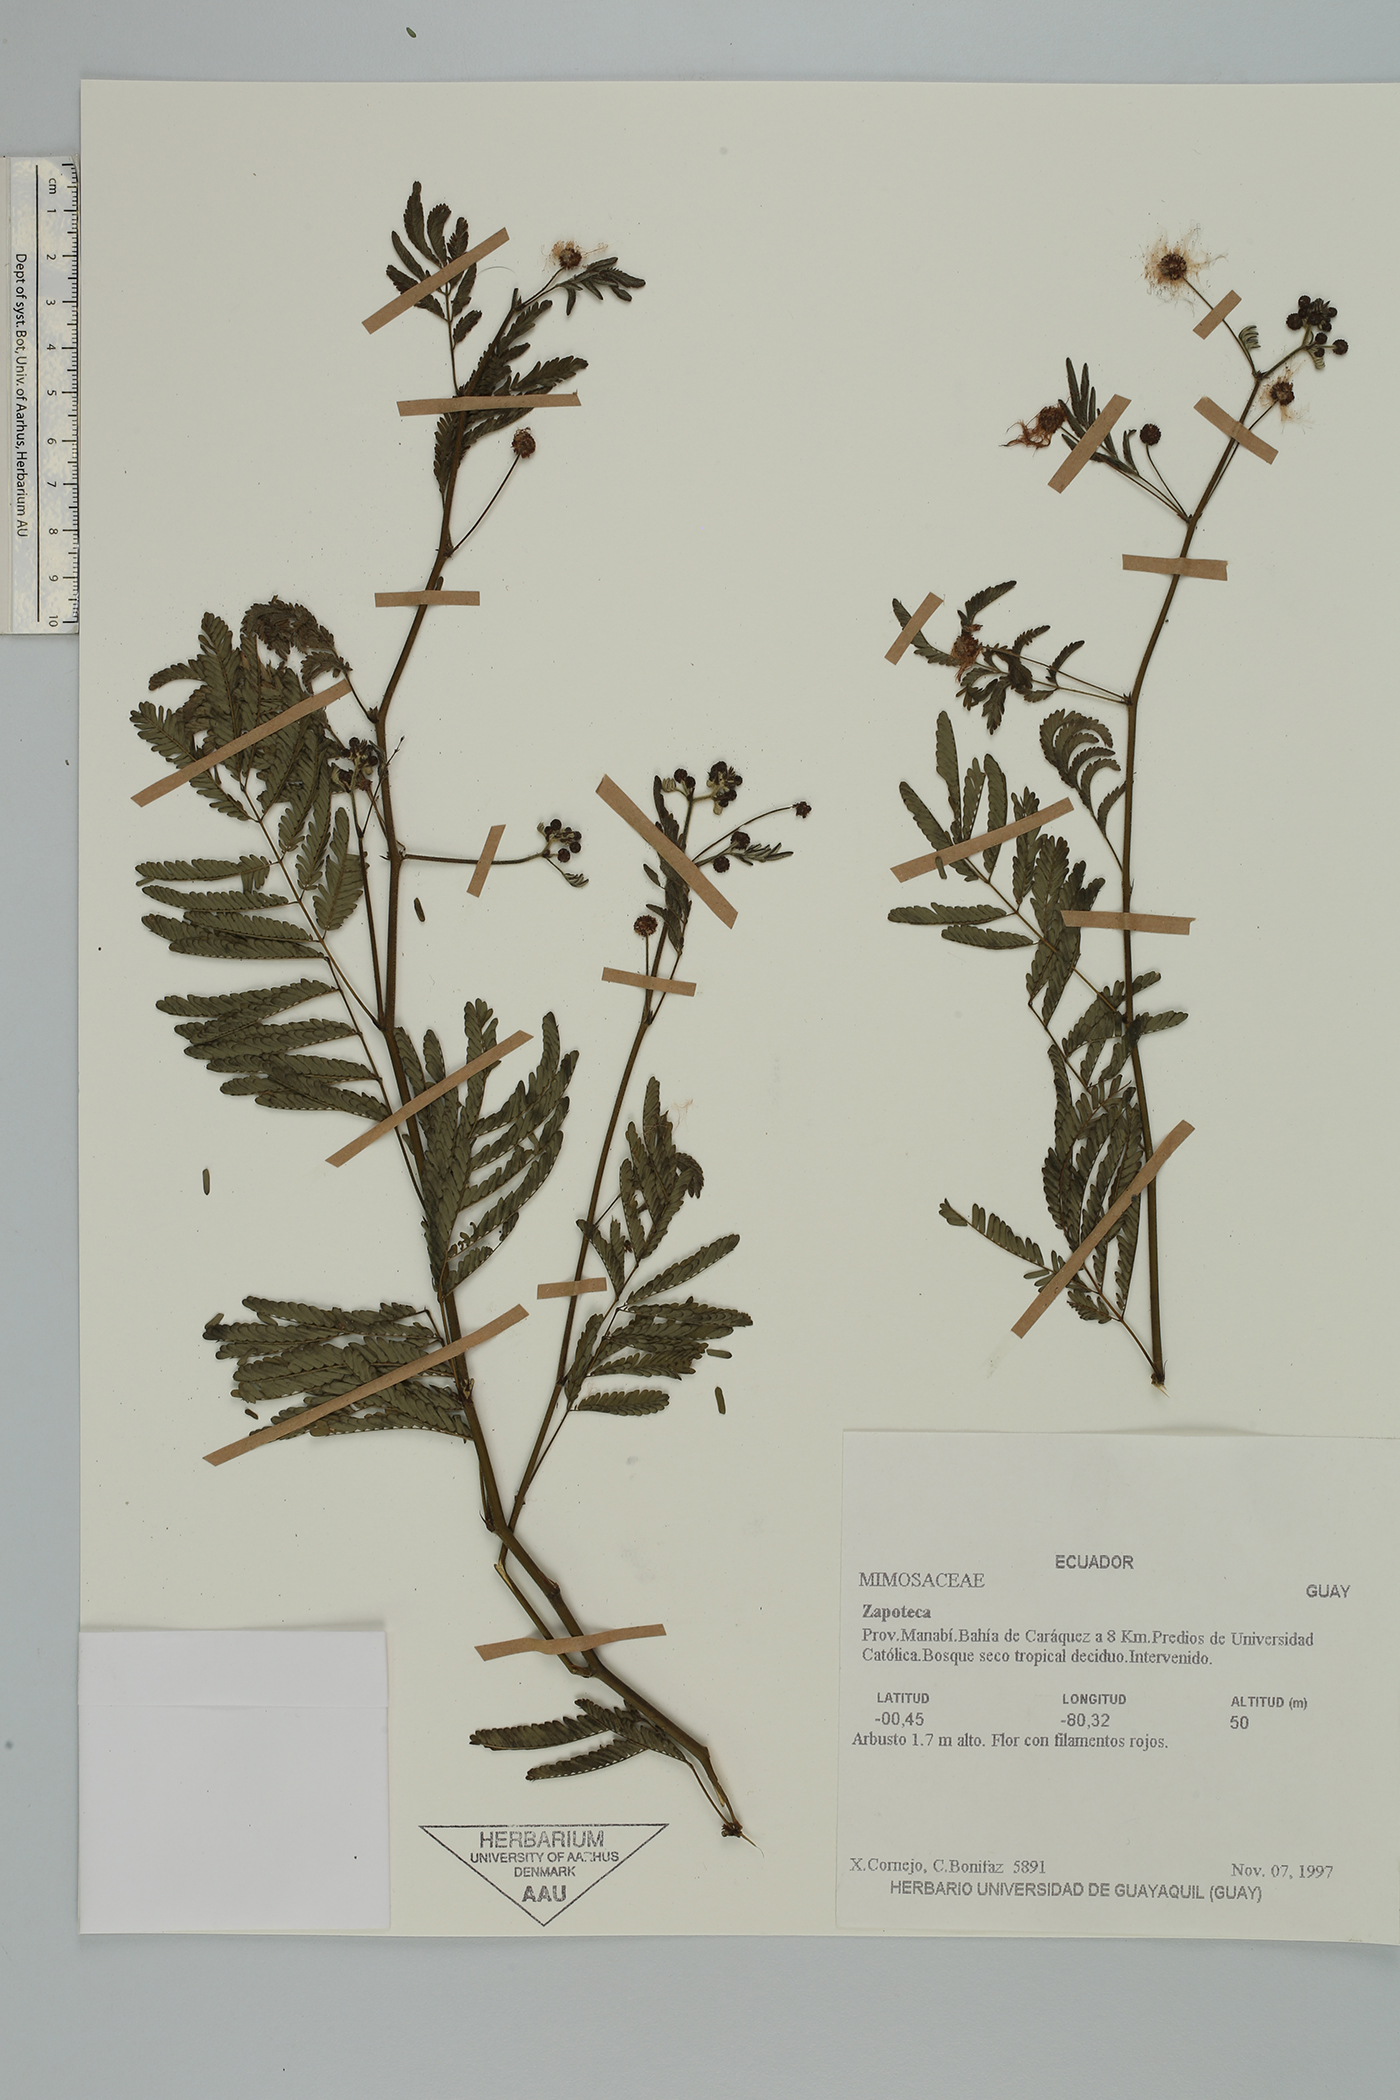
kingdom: Plantae
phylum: Tracheophyta
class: Magnoliopsida
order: Fabales
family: Fabaceae
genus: Zapoteca
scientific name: Zapoteca
